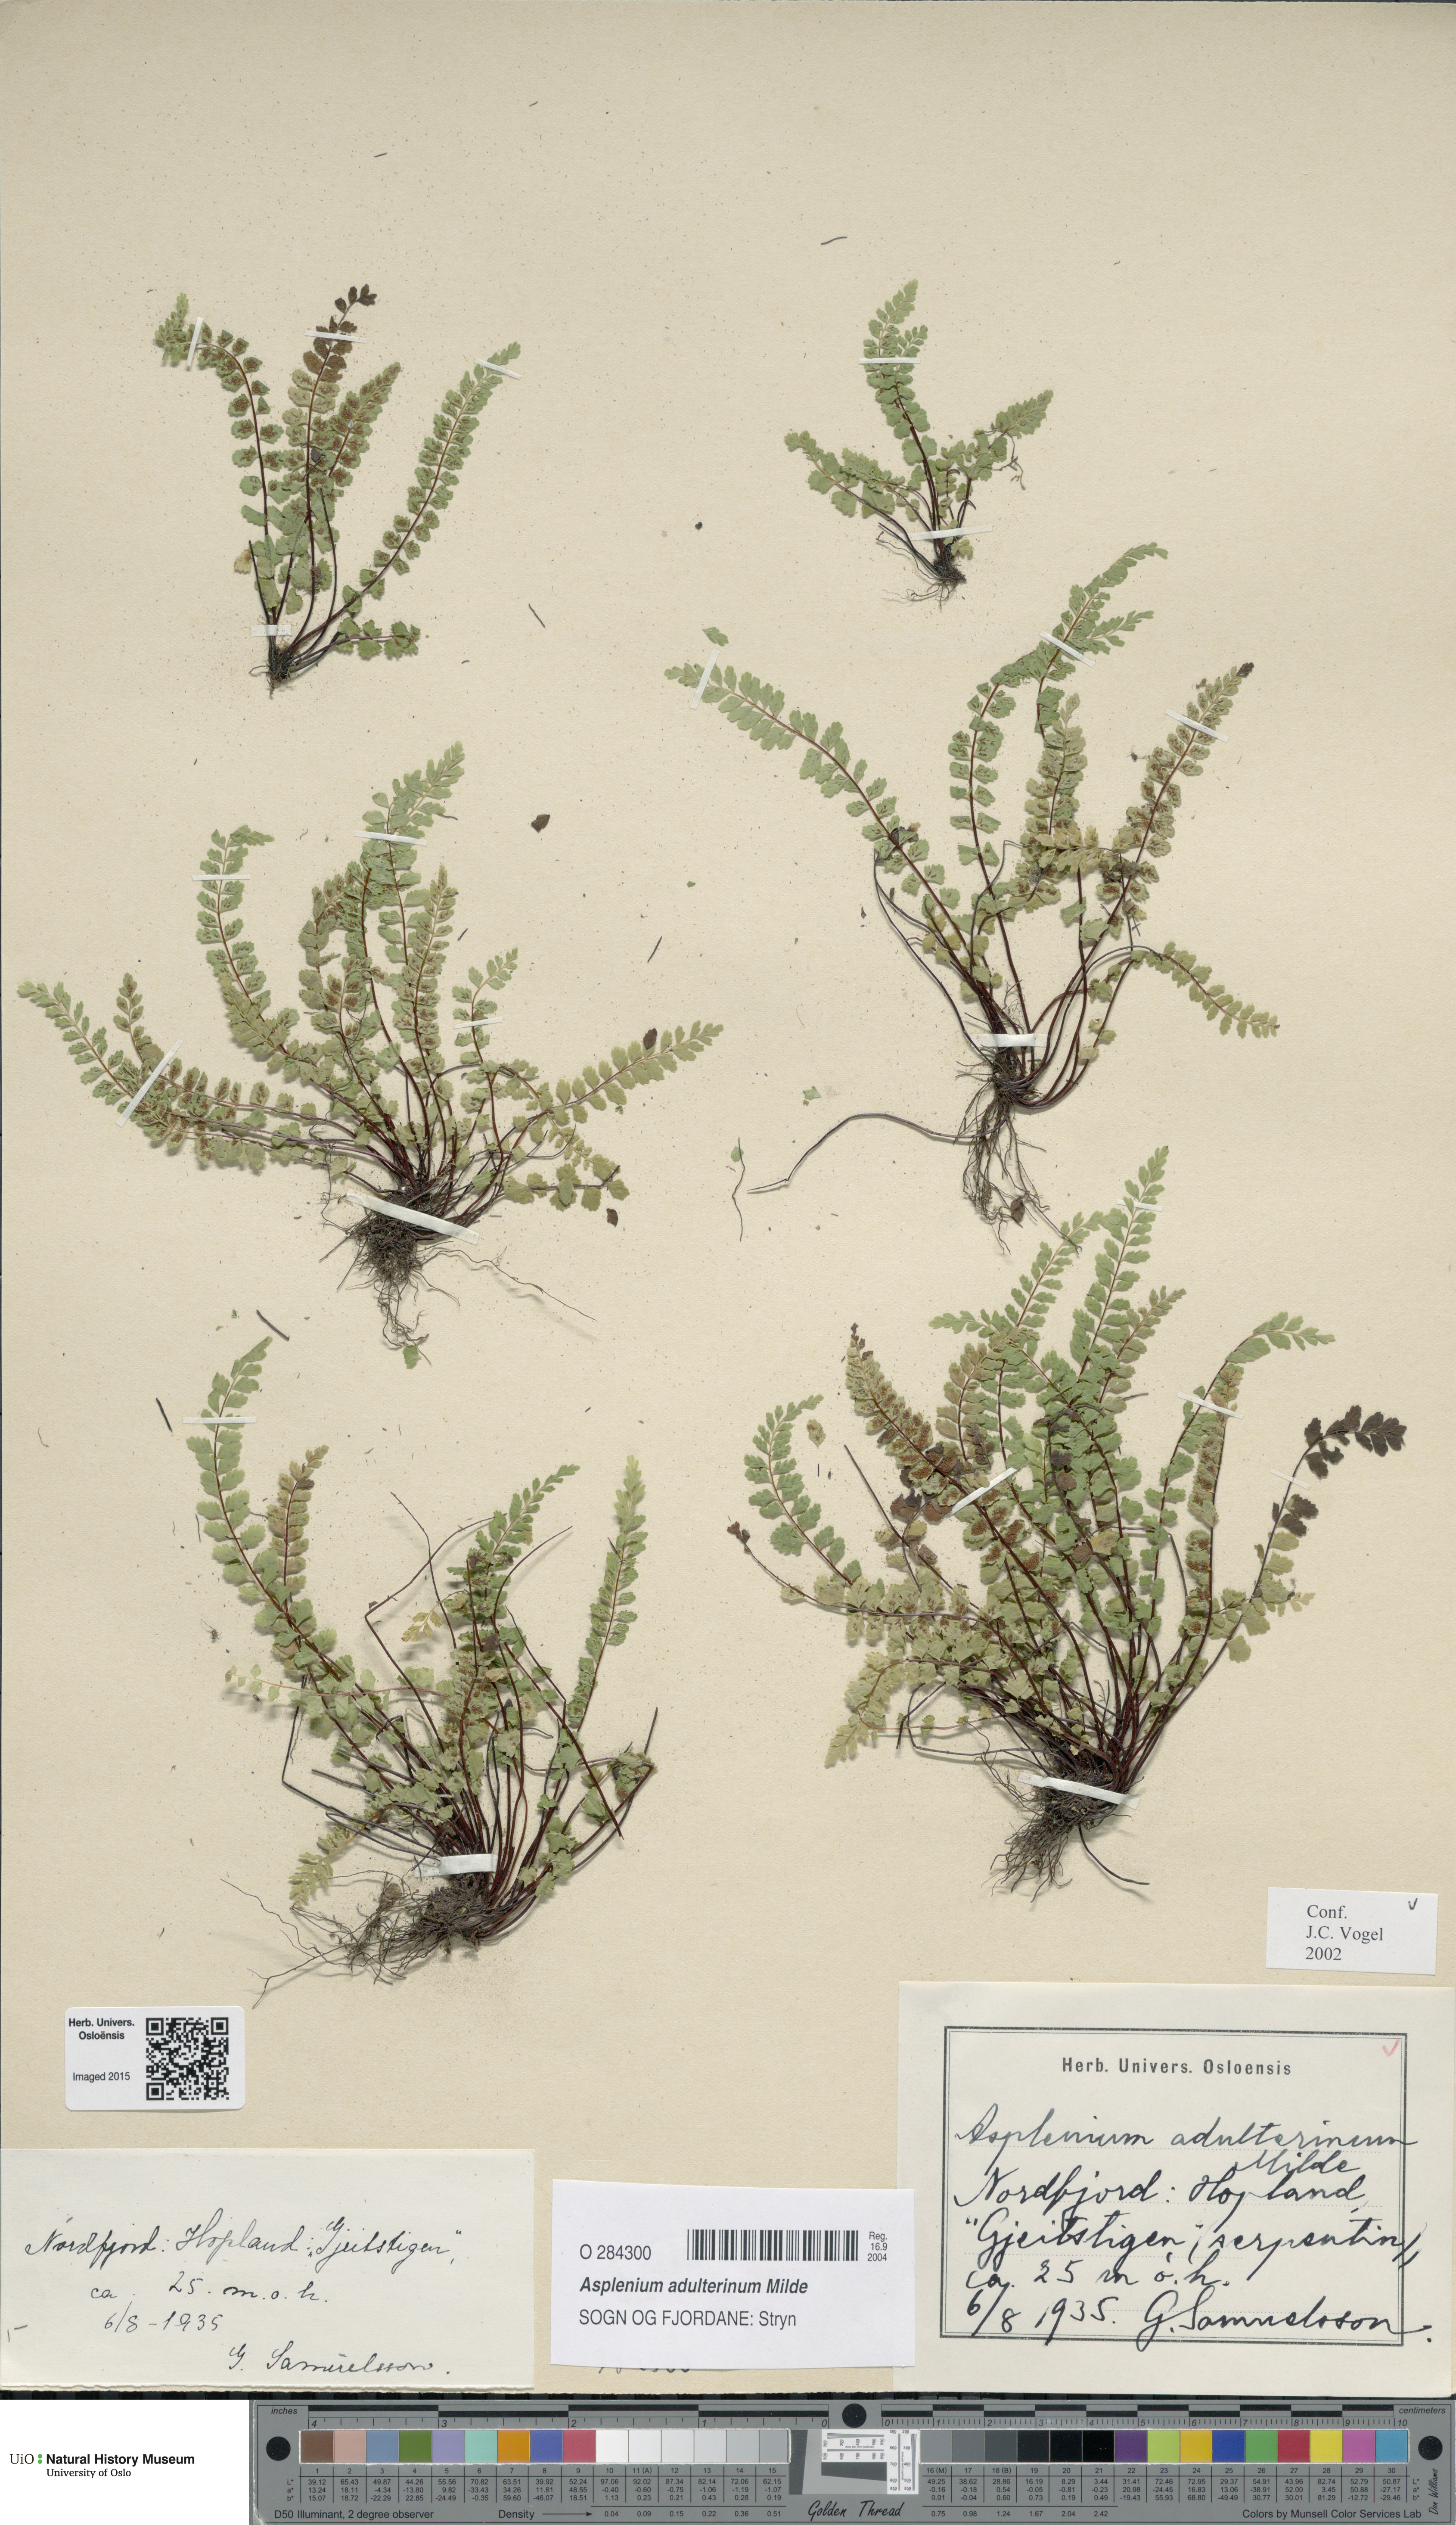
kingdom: Plantae
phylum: Tracheophyta
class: Polypodiopsida
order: Polypodiales
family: Aspleniaceae
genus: Asplenium
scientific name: Asplenium adulterinum
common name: Adulterated spleenwort
